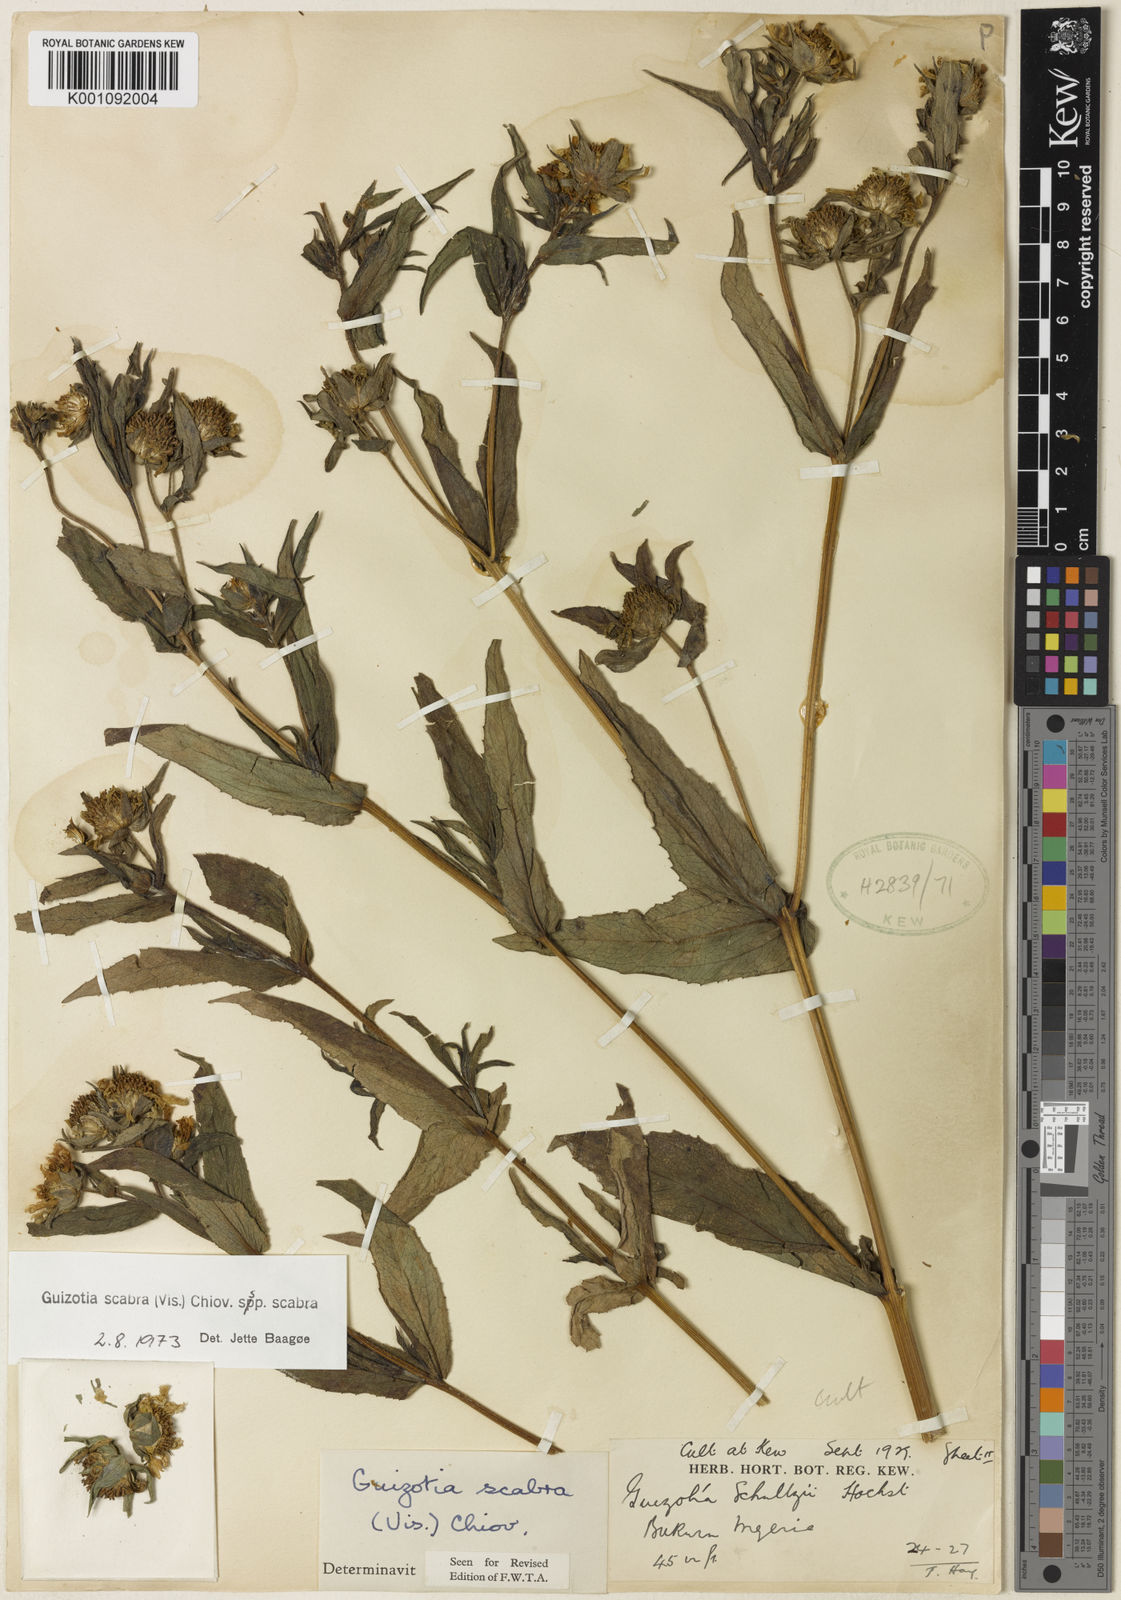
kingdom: Plantae
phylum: Tracheophyta
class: Magnoliopsida
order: Asterales
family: Asteraceae
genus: Guizotia
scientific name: Guizotia scabra
